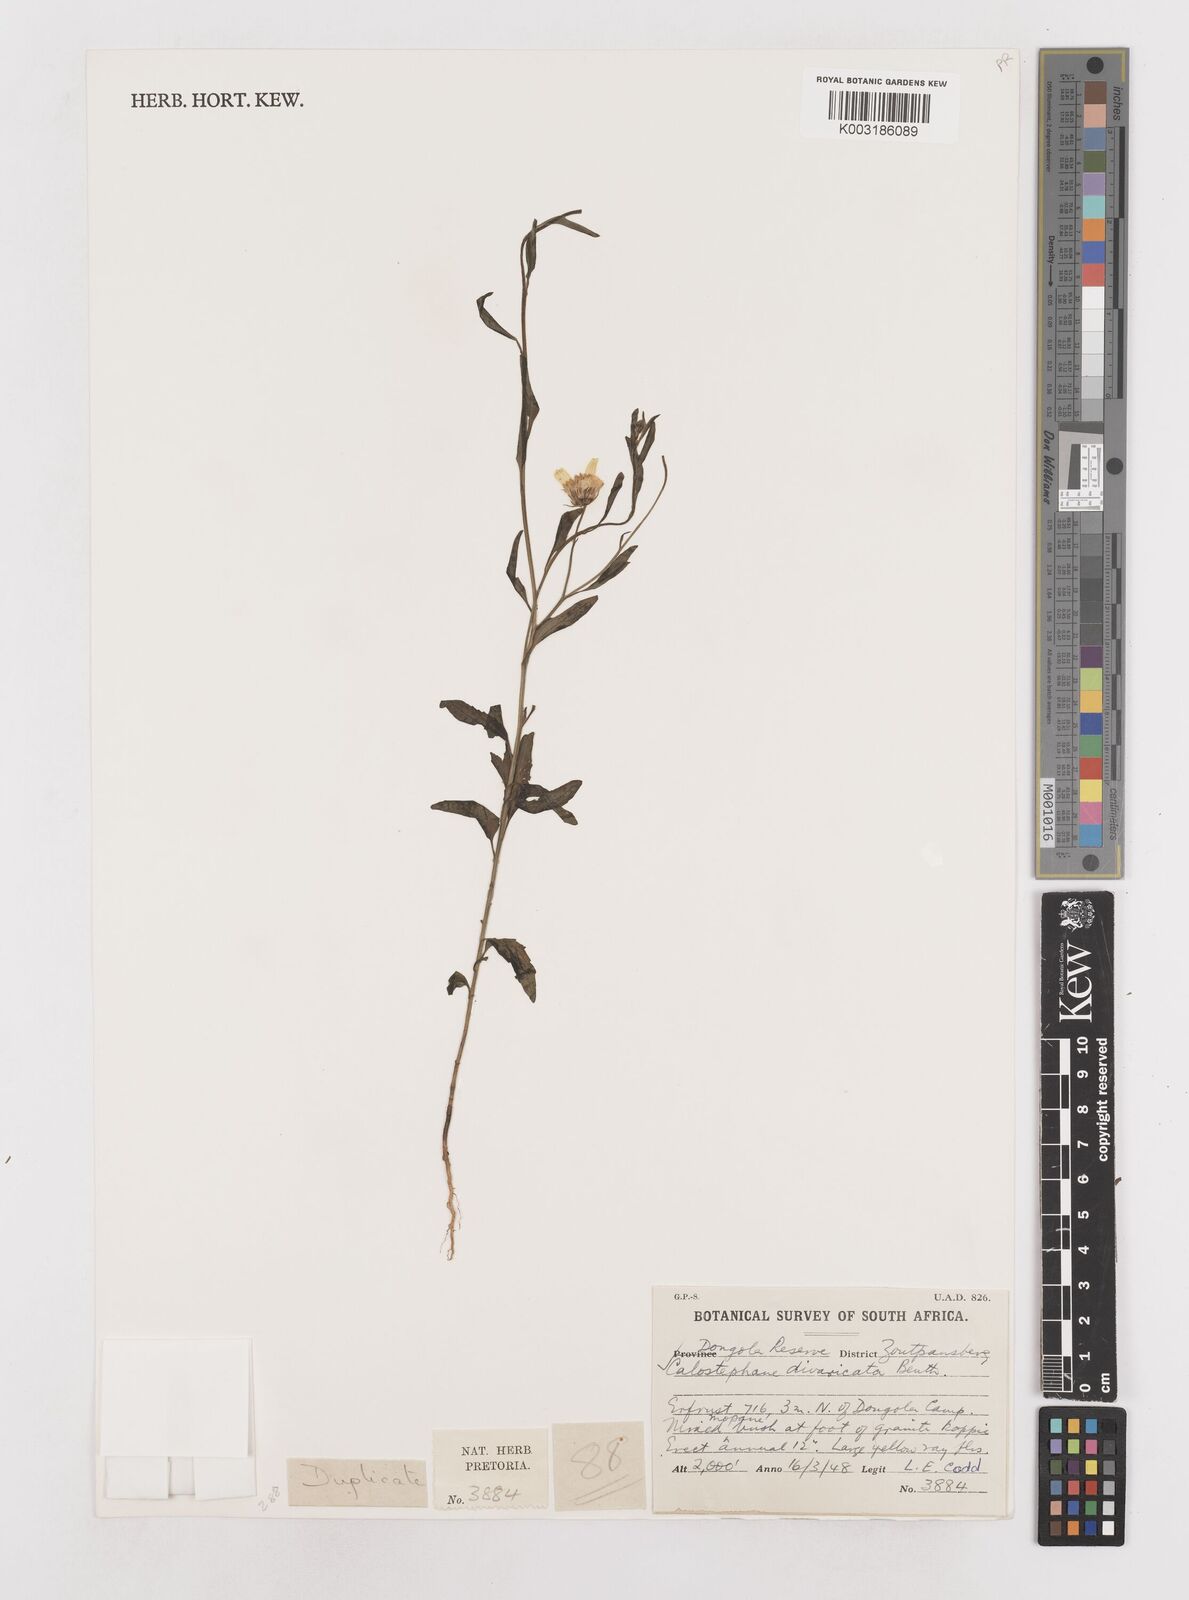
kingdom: Plantae
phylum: Tracheophyta
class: Magnoliopsida
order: Asterales
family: Asteraceae
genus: Calostephane
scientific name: Calostephane divaricata
